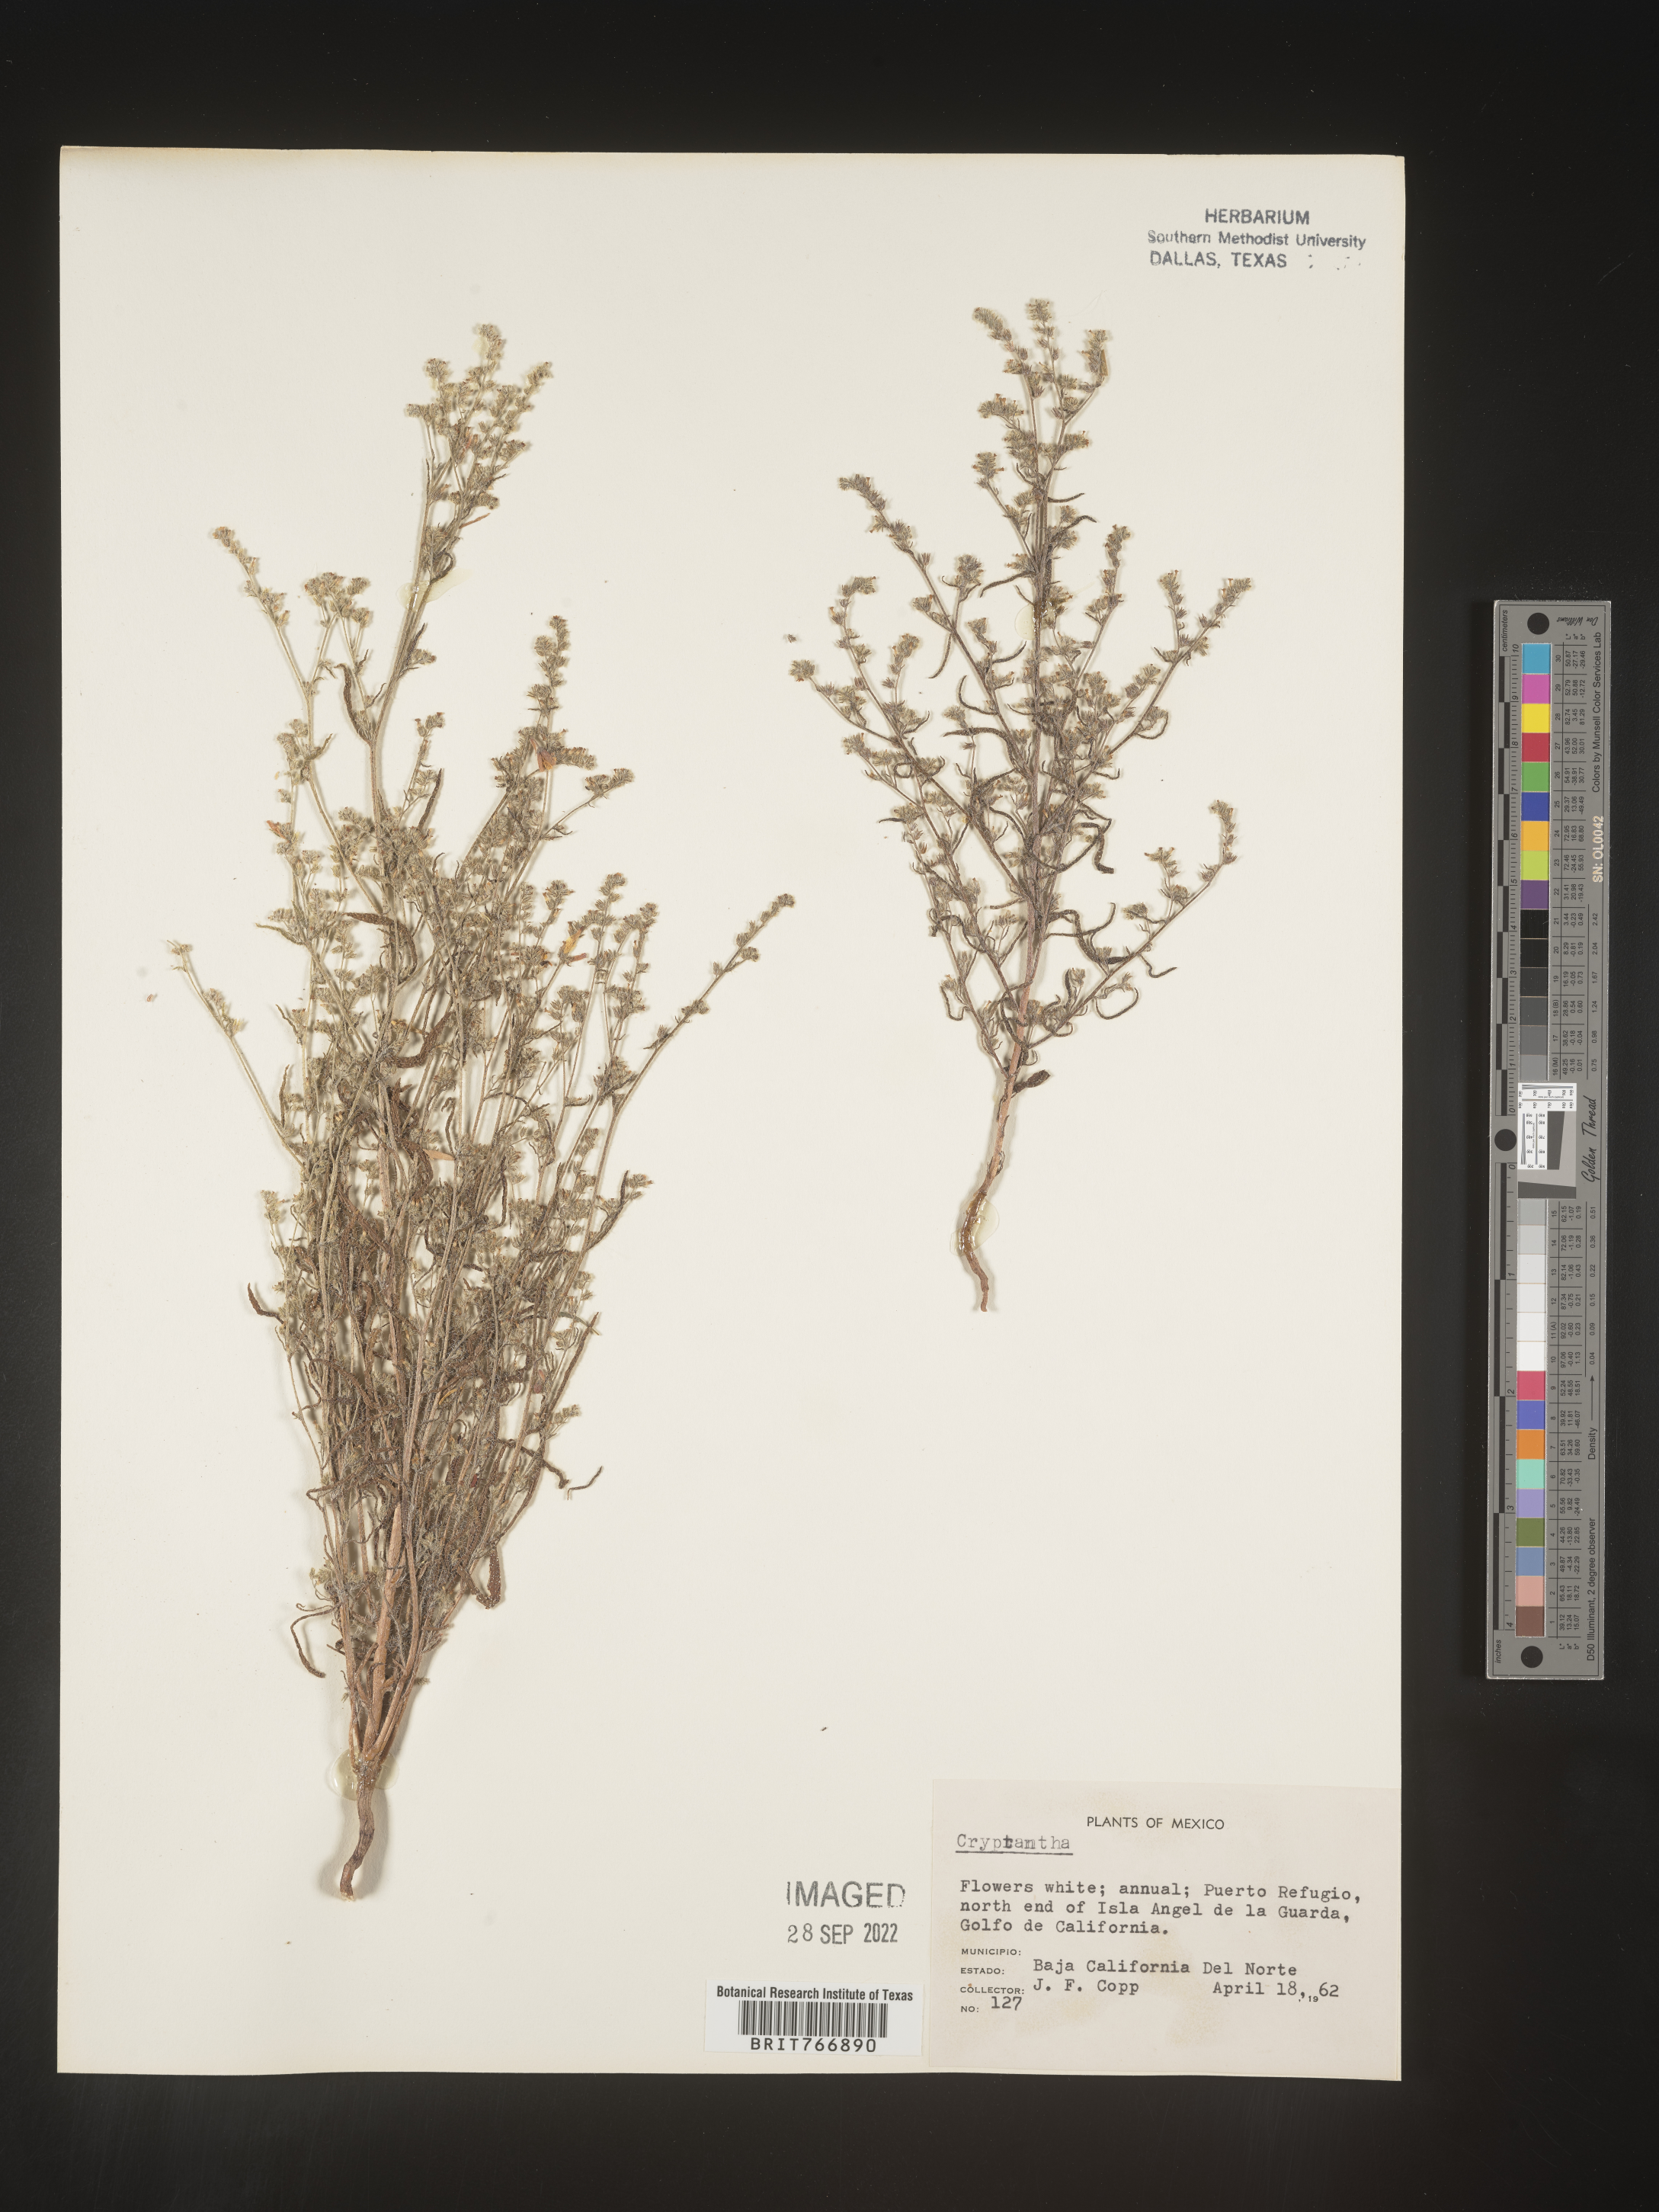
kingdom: Plantae
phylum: Tracheophyta
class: Magnoliopsida
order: Boraginales
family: Boraginaceae
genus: Cryptantha
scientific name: Cryptantha
